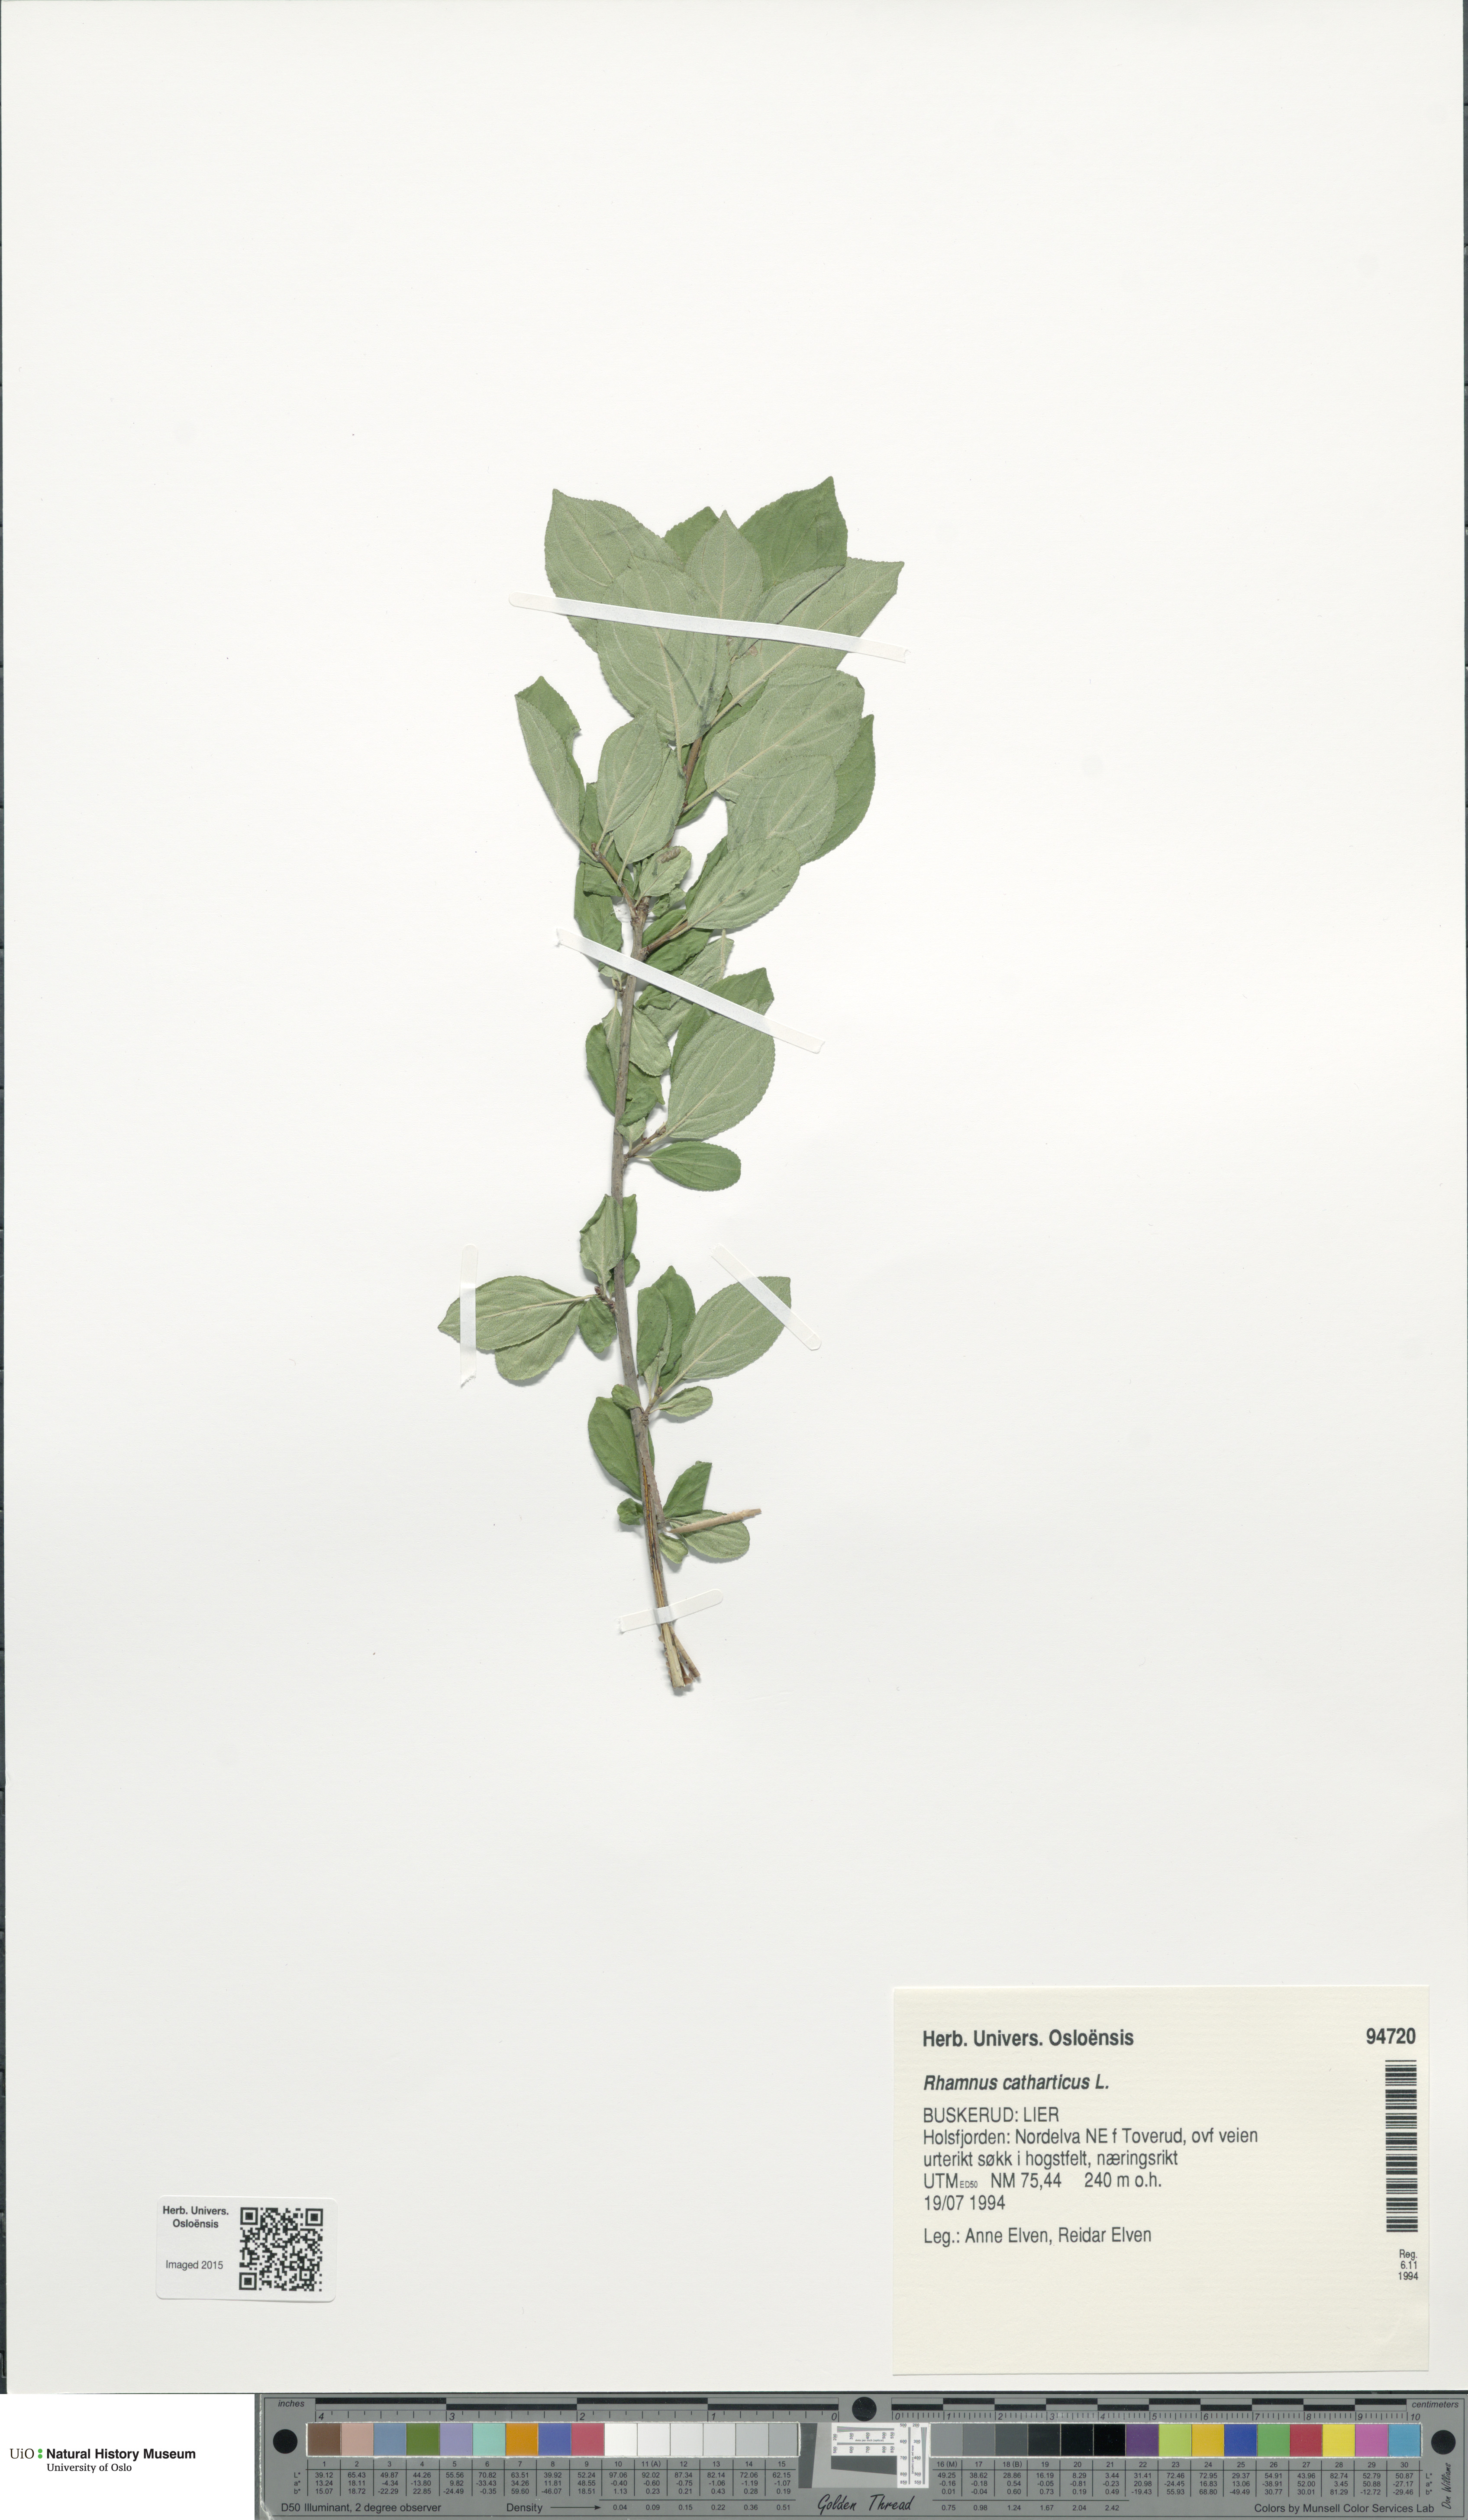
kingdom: Plantae
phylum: Tracheophyta
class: Magnoliopsida
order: Rosales
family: Rhamnaceae
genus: Rhamnus
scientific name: Rhamnus cathartica
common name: Common buckthorn
